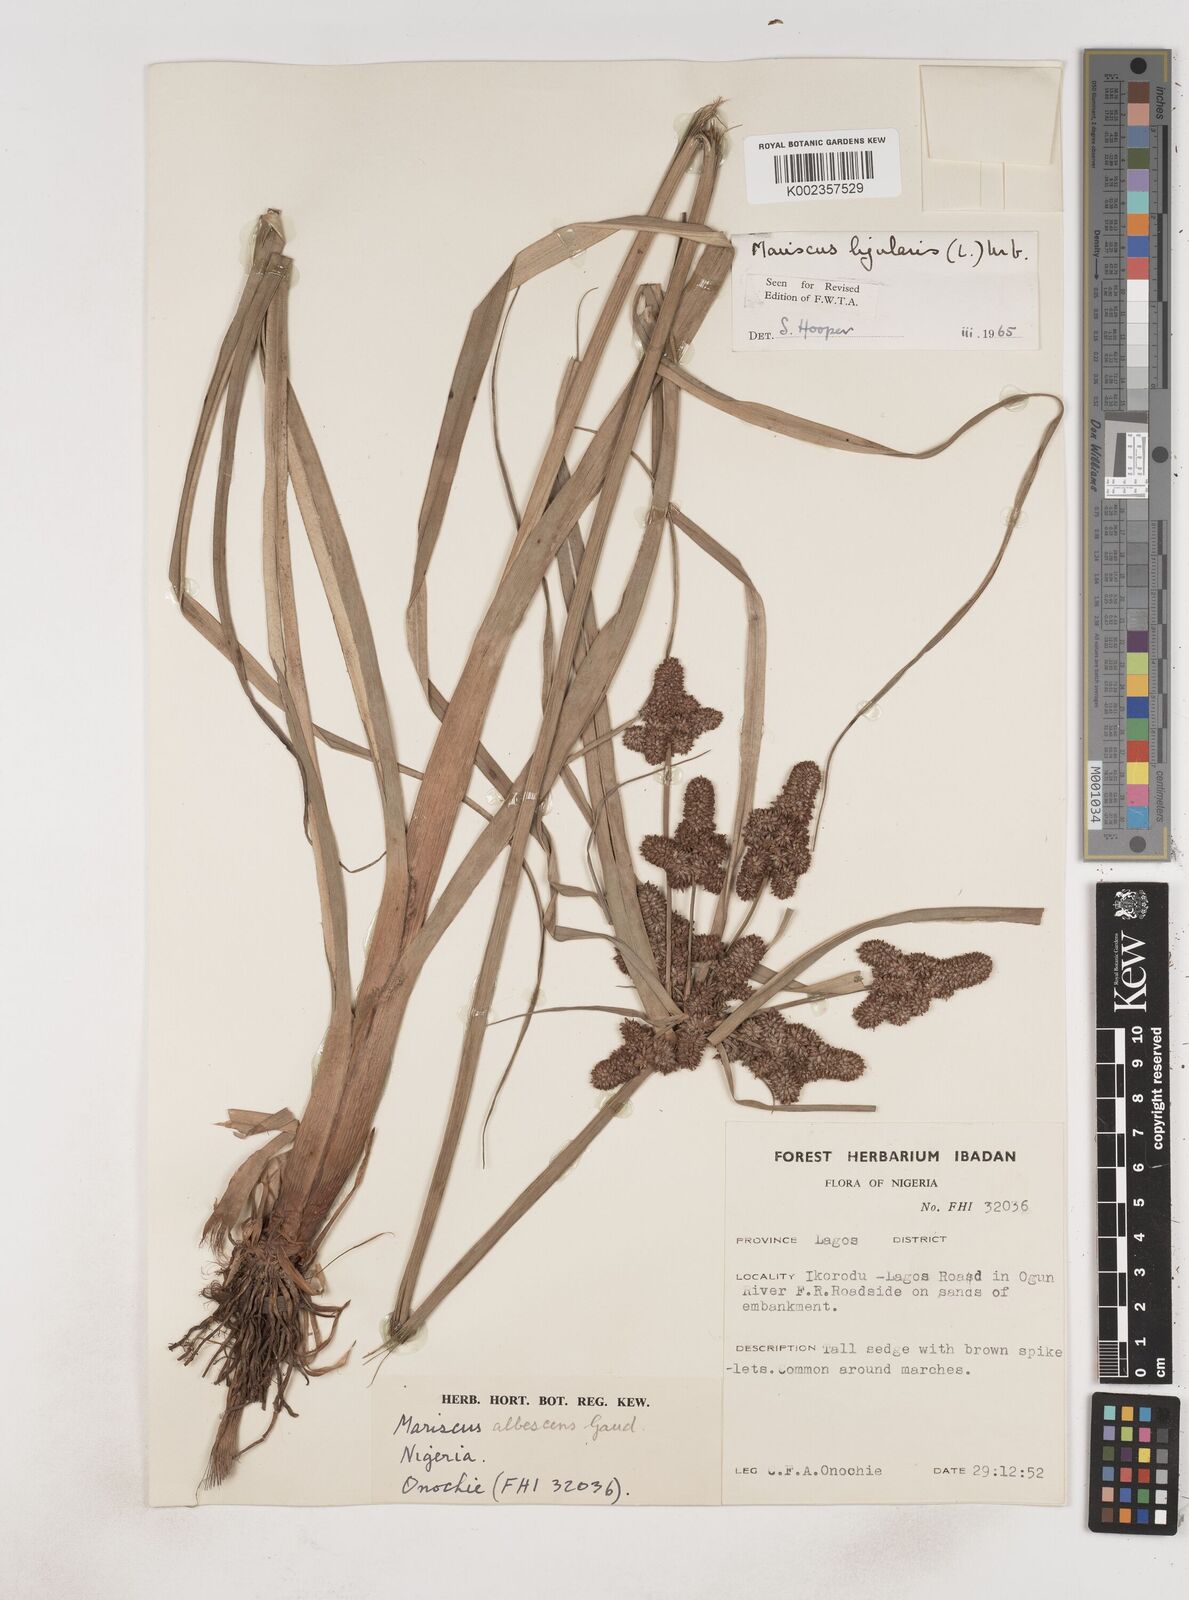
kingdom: Plantae
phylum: Tracheophyta
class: Liliopsida
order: Poales
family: Cyperaceae
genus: Cyperus
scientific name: Cyperus ligularis
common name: Swamp flat sedge
